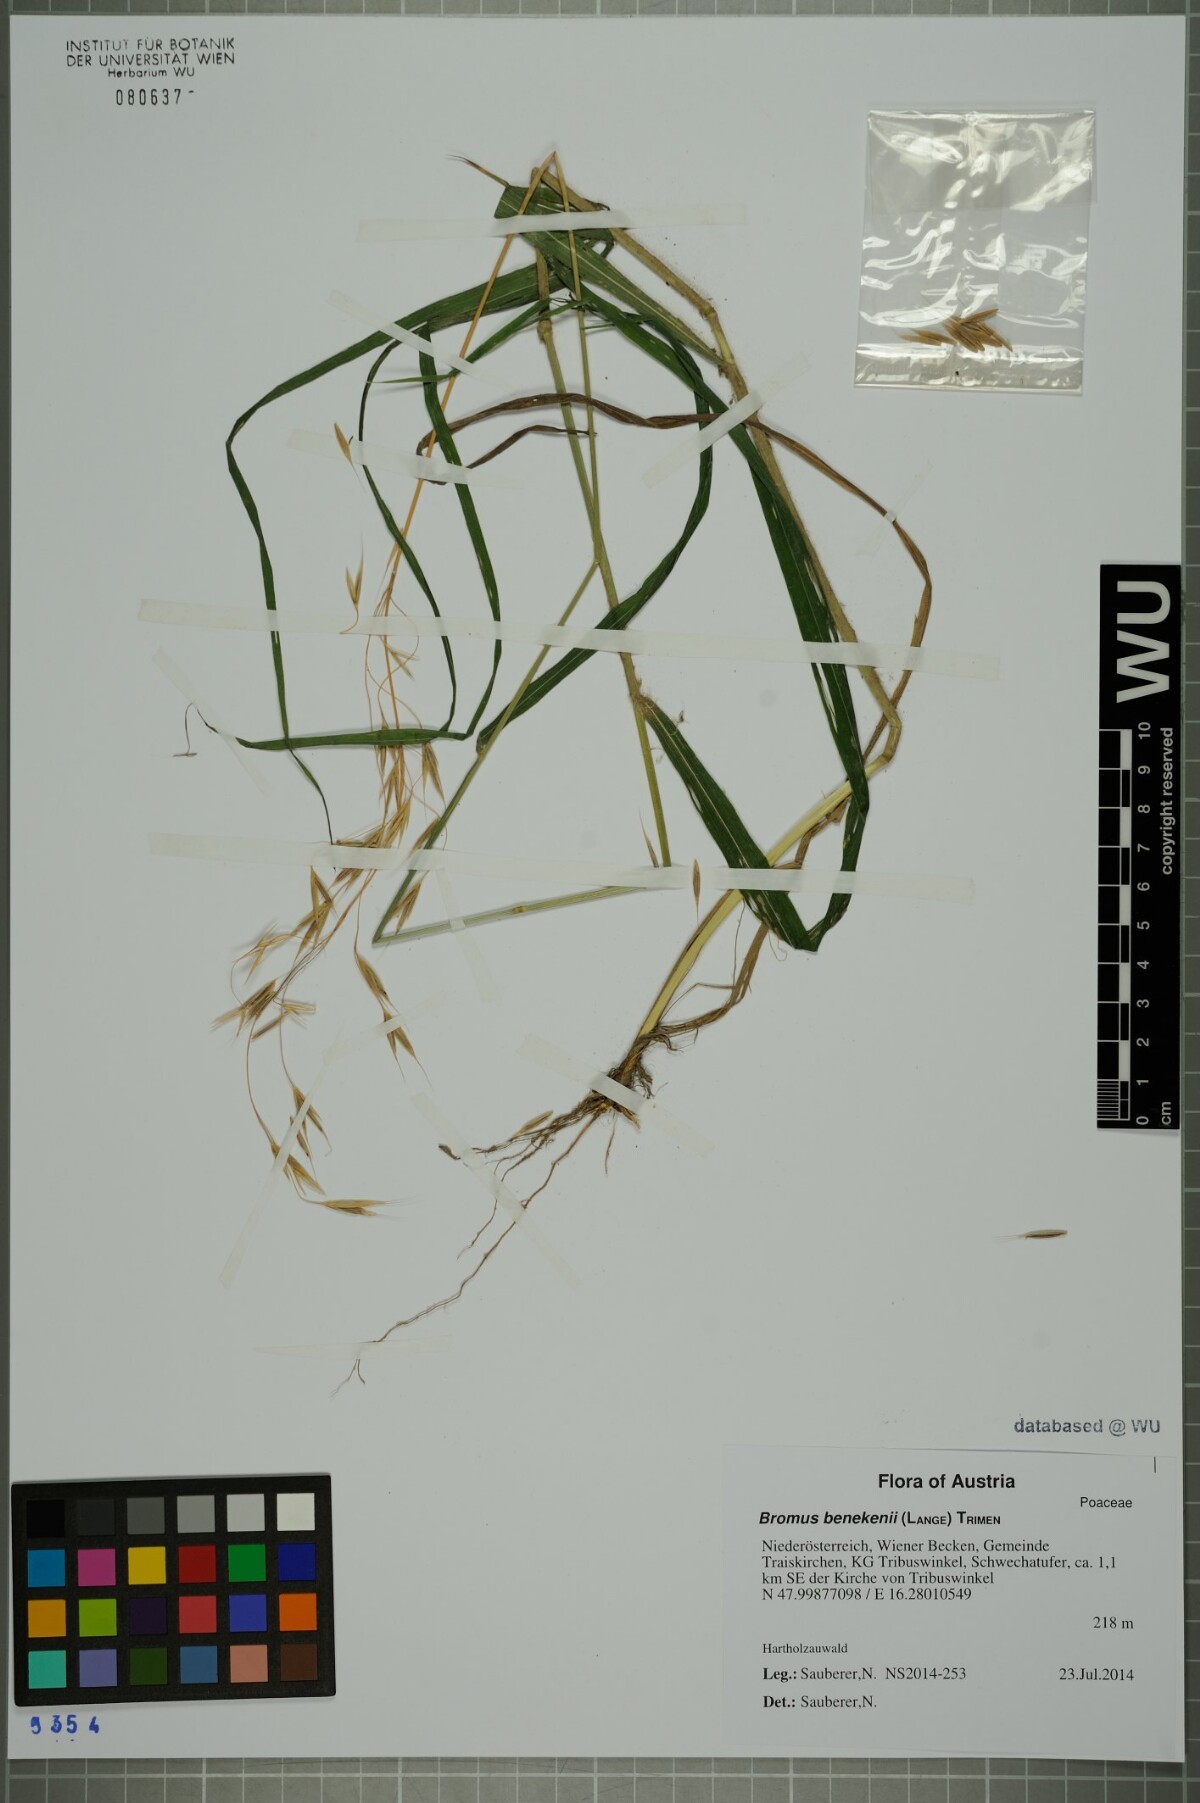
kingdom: Plantae
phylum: Tracheophyta
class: Liliopsida
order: Poales
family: Poaceae
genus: Bromus
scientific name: Bromus benekenii
